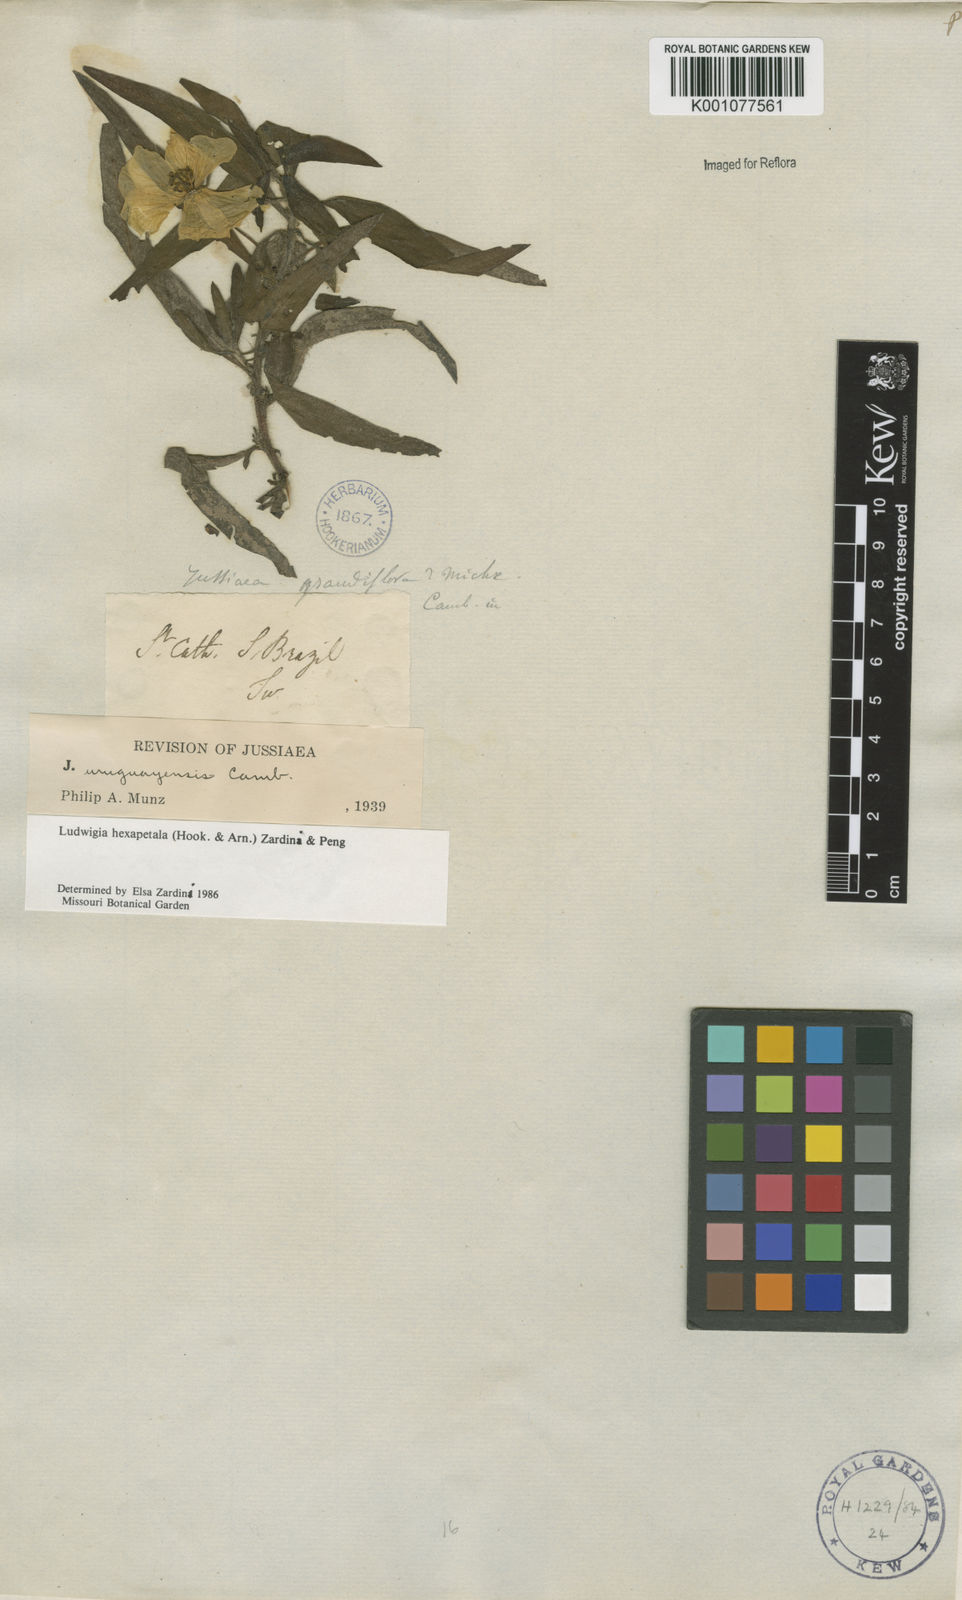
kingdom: Plantae
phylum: Tracheophyta
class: Magnoliopsida
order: Myrtales
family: Onagraceae
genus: Ludwigia
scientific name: Ludwigia
